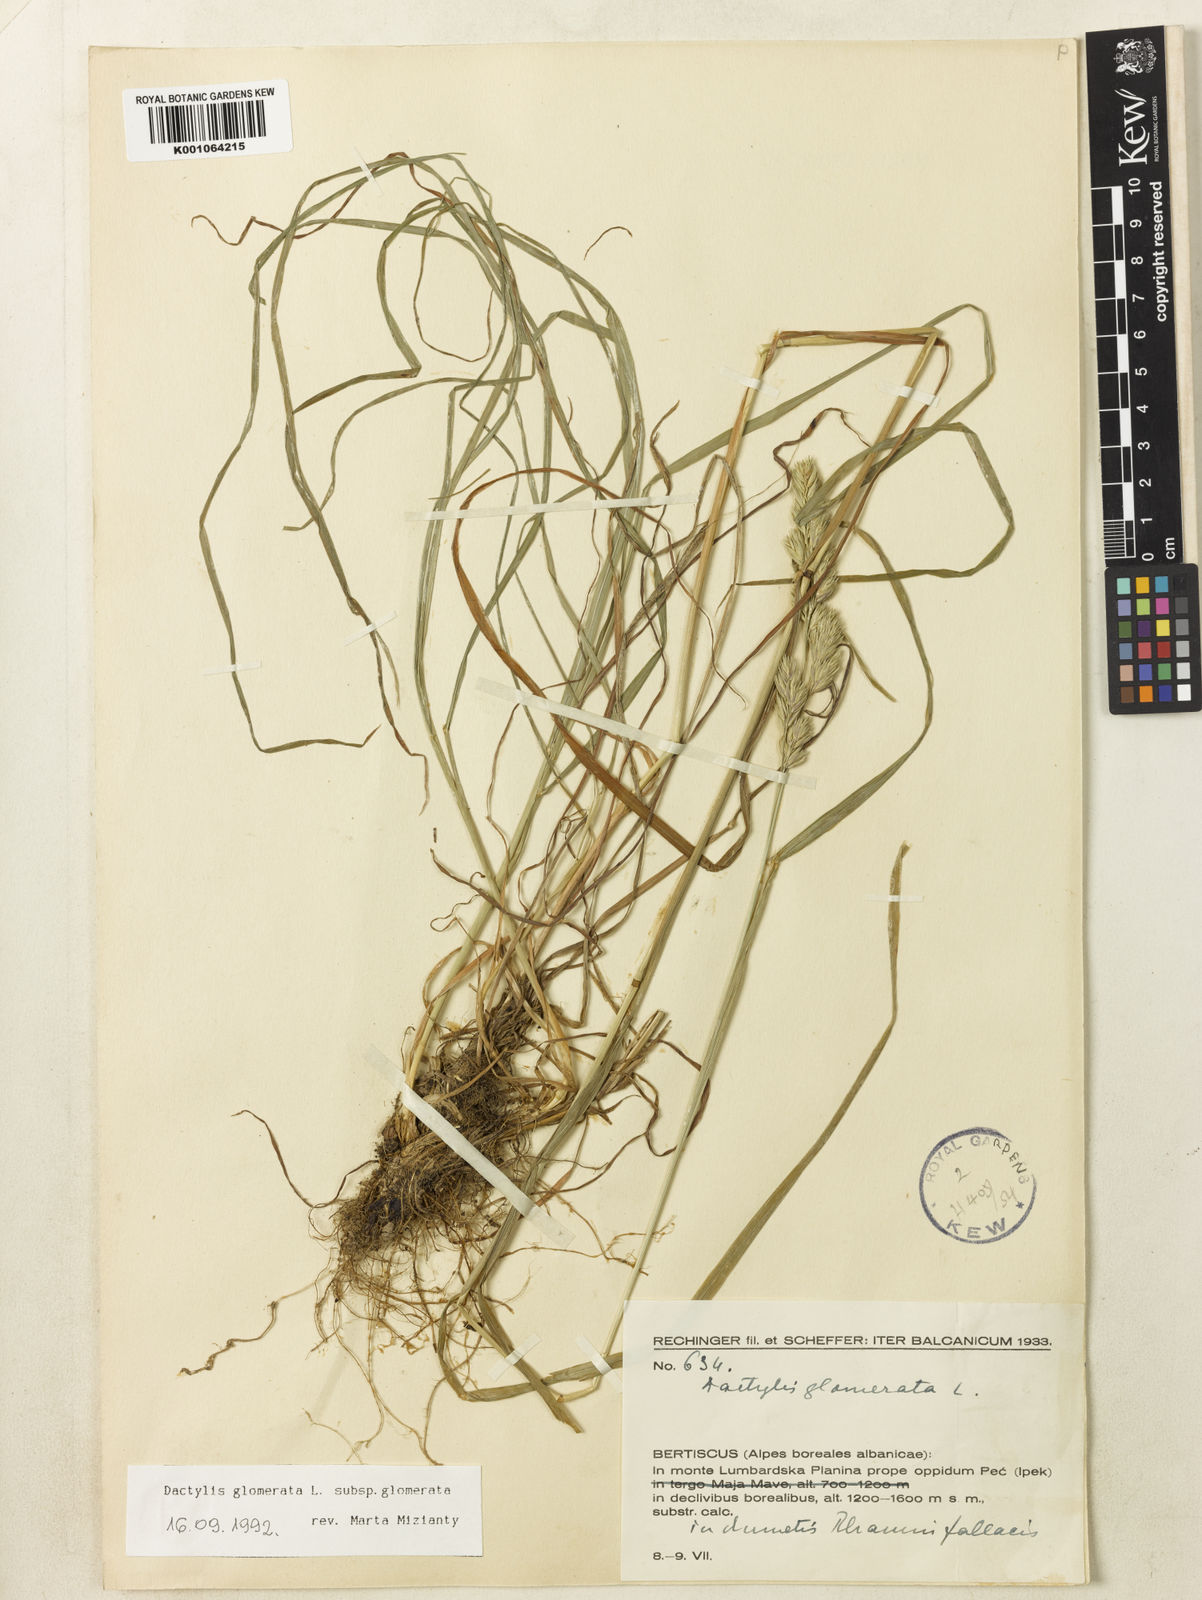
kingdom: Plantae
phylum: Tracheophyta
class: Liliopsida
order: Poales
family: Poaceae
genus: Dactylis
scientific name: Dactylis glomerata
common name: Orchardgrass
